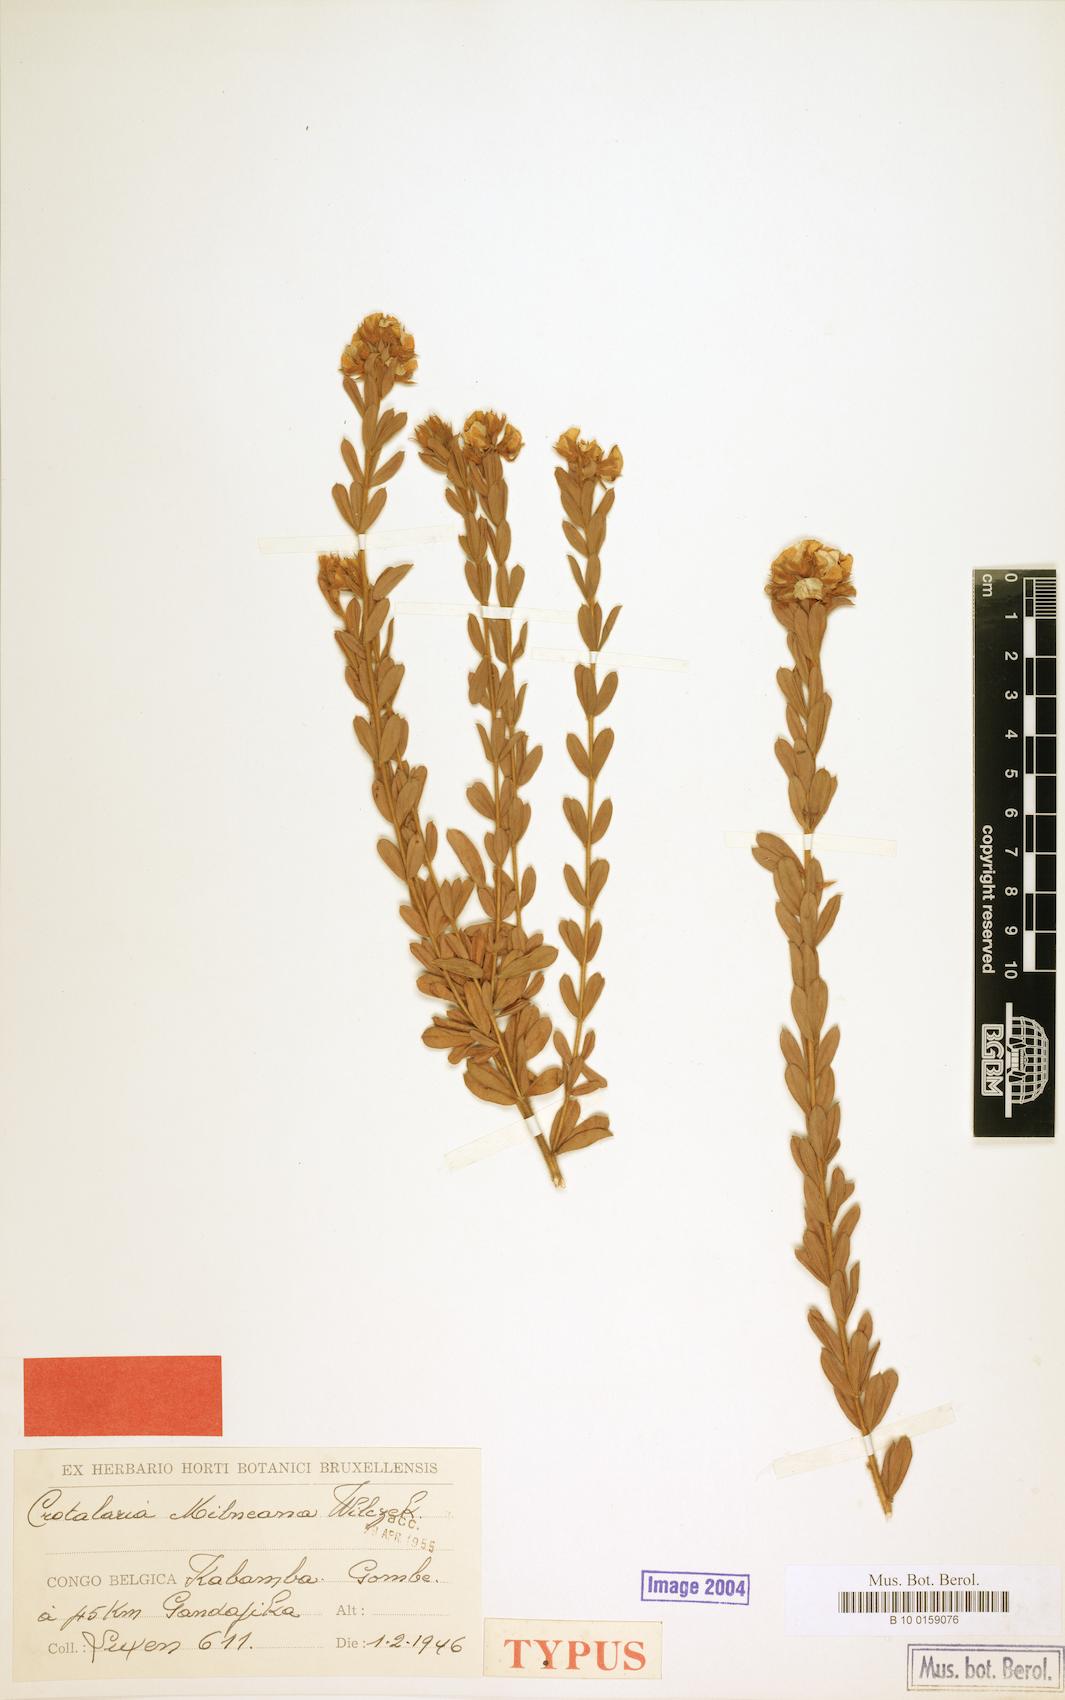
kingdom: Plantae
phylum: Tracheophyta
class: Magnoliopsida
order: Fabales
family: Fabaceae
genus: Crotalaria
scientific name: Crotalaria milneana
